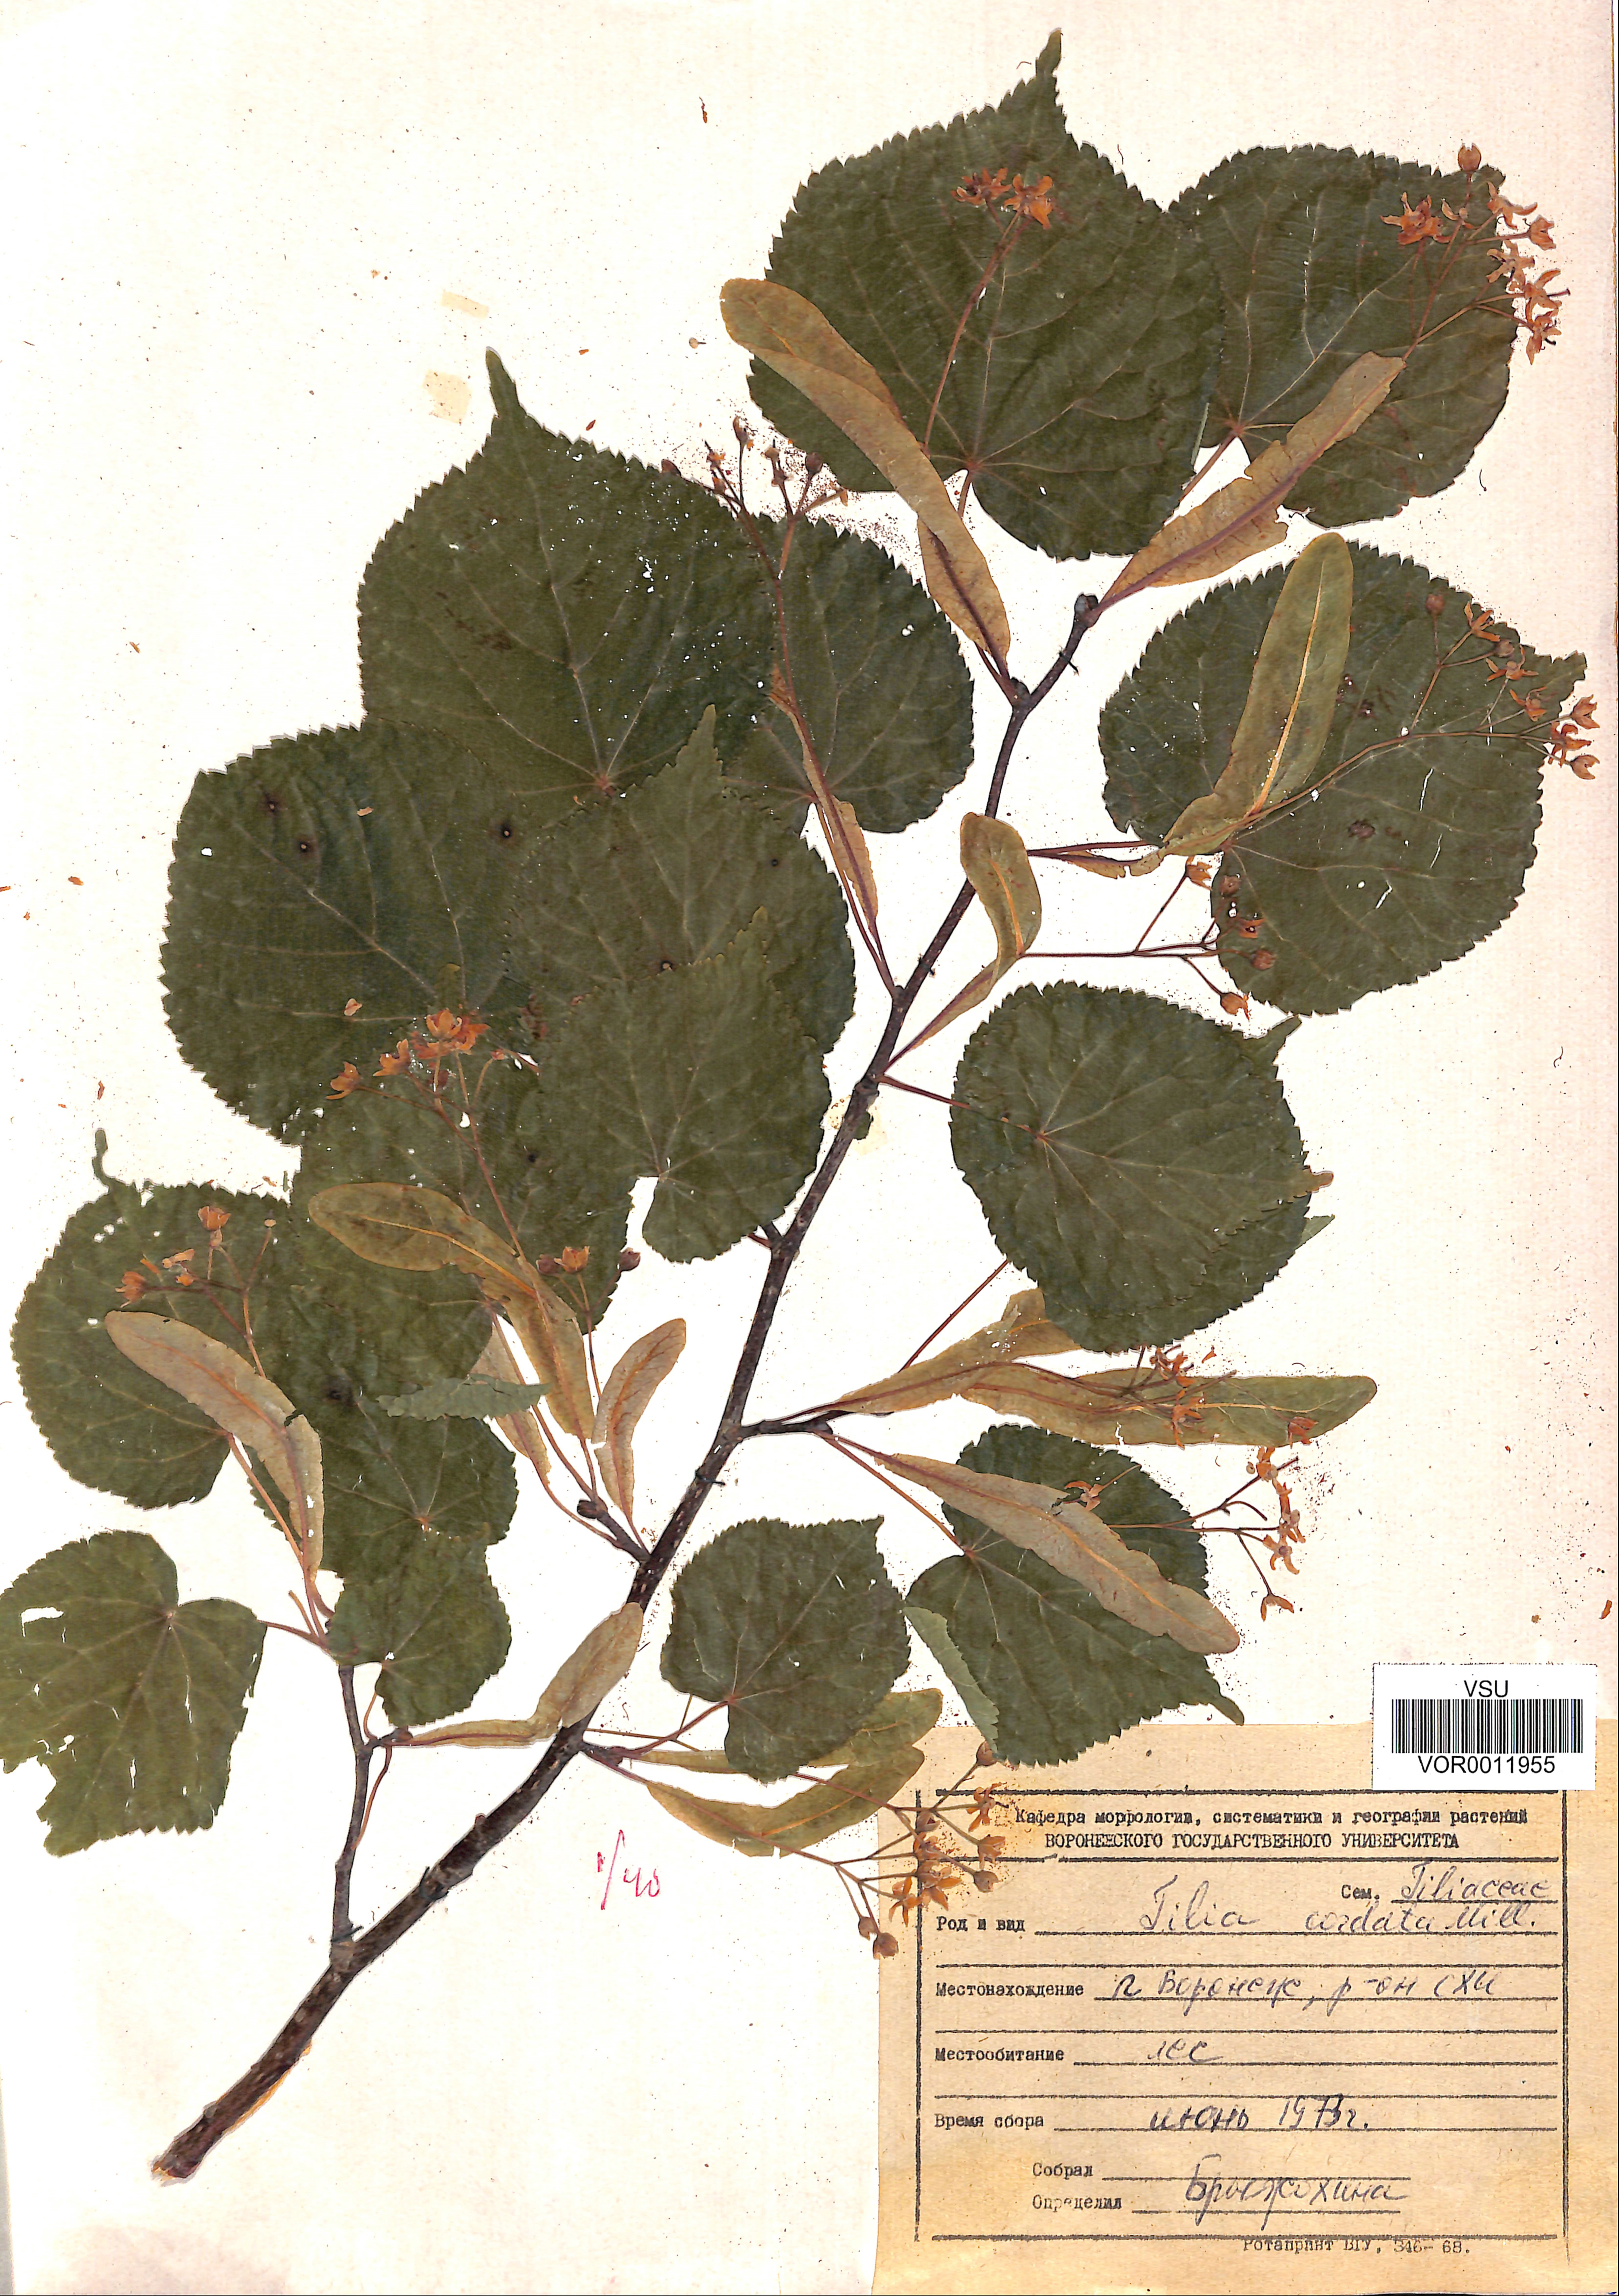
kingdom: Plantae
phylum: Tracheophyta
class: Magnoliopsida
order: Malvales
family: Malvaceae
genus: Tilia
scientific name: Tilia cordata
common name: Small-leaved lime
